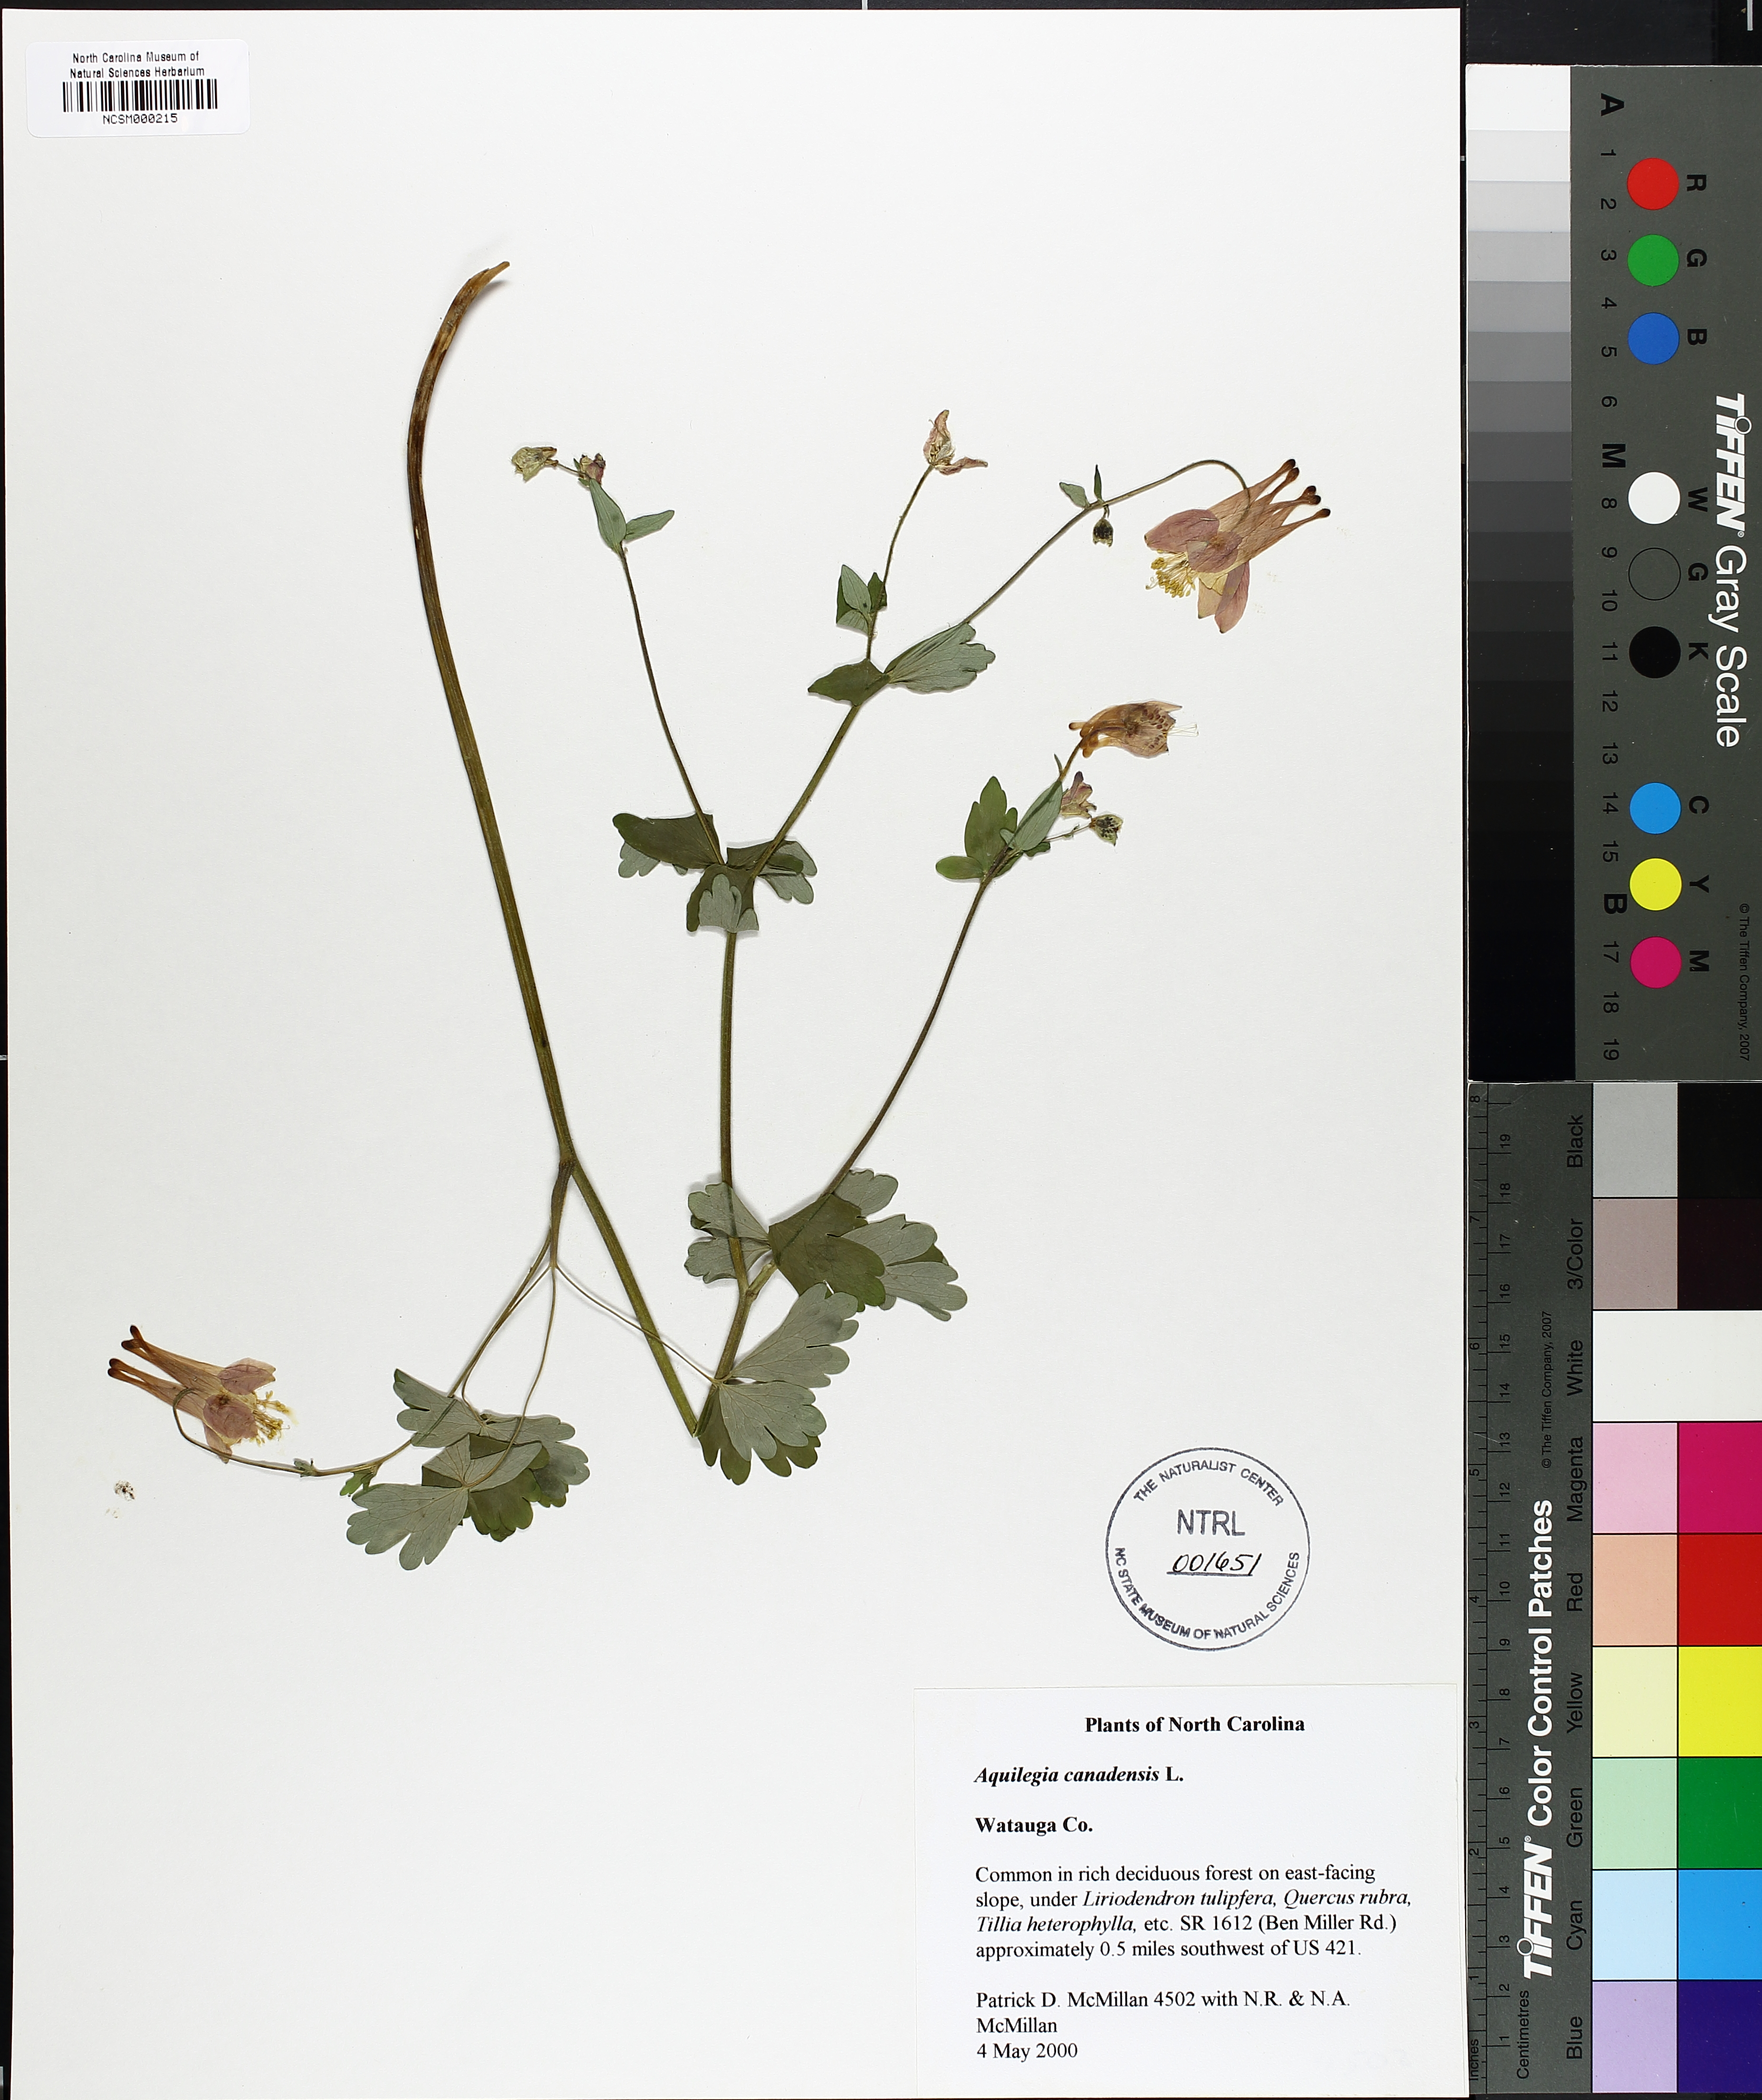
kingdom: Plantae
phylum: Tracheophyta
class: Magnoliopsida
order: Ranunculales
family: Ranunculaceae
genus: Aquilegia
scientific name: Aquilegia canadensis
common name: American columbine
